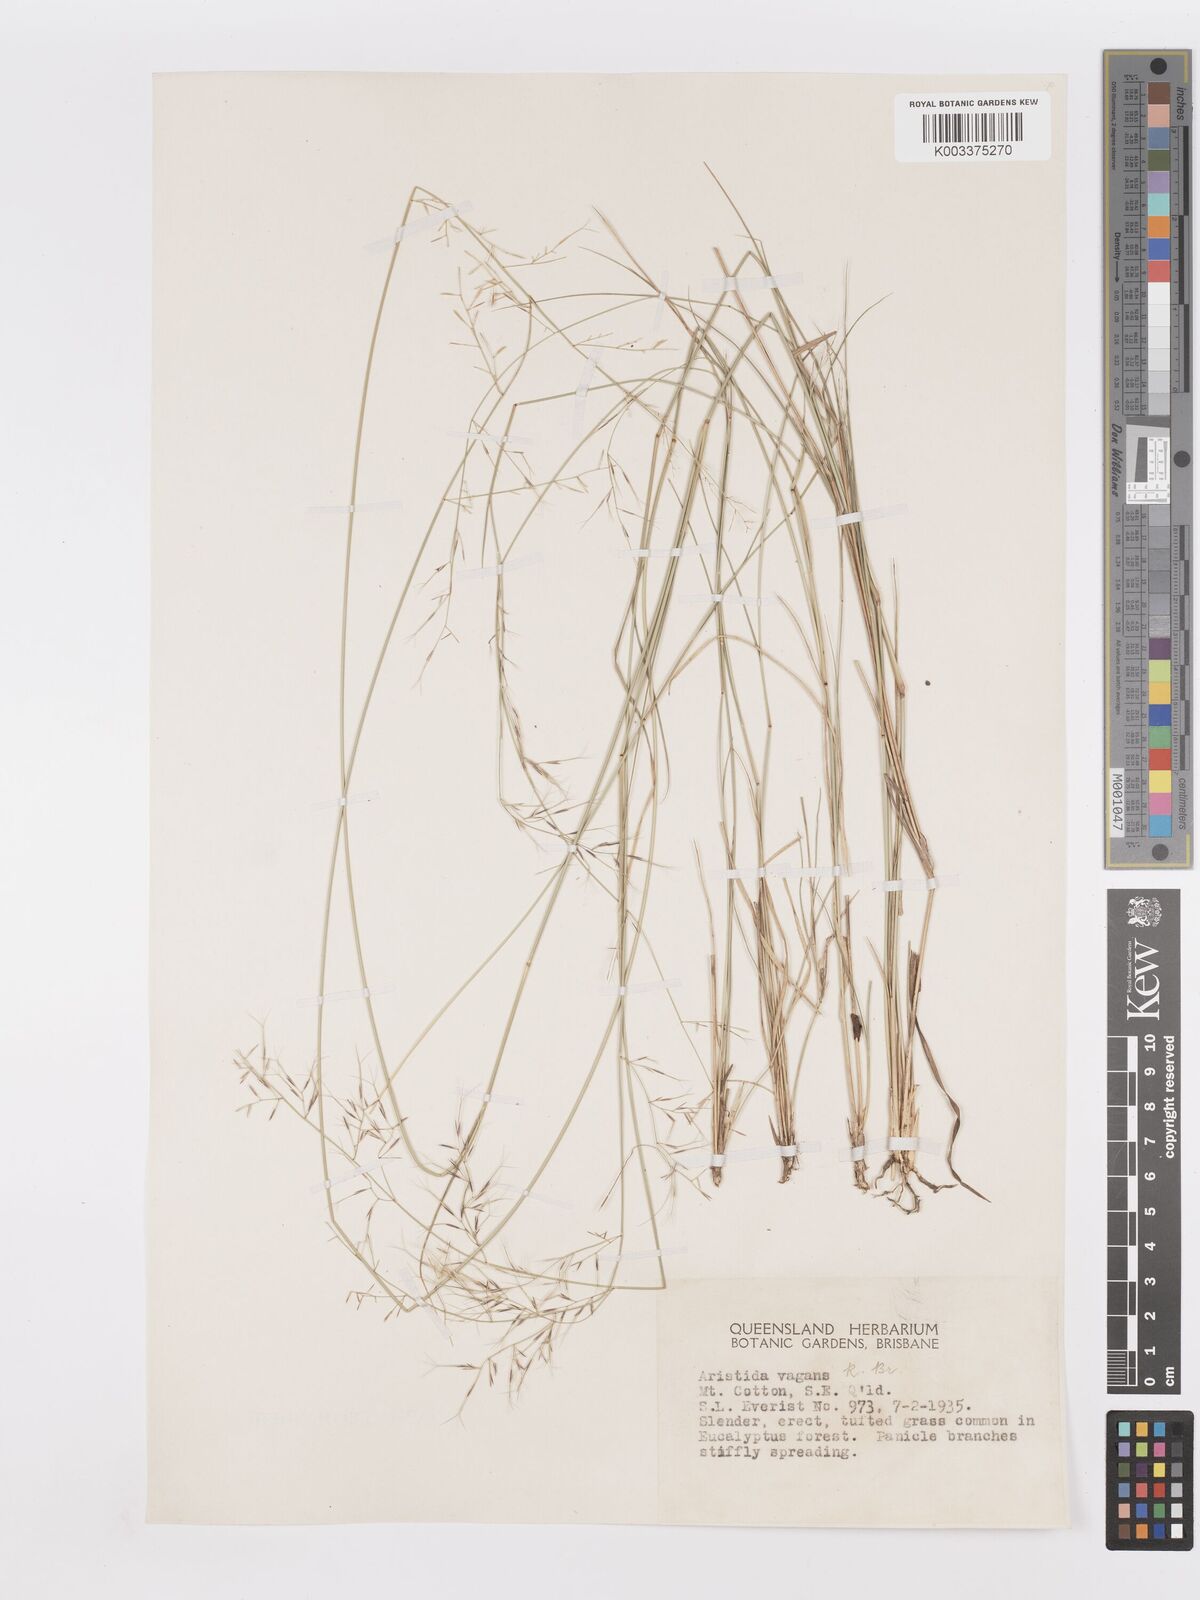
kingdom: Plantae
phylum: Tracheophyta
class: Liliopsida
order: Poales
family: Poaceae
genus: Aristida
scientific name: Aristida vagans
